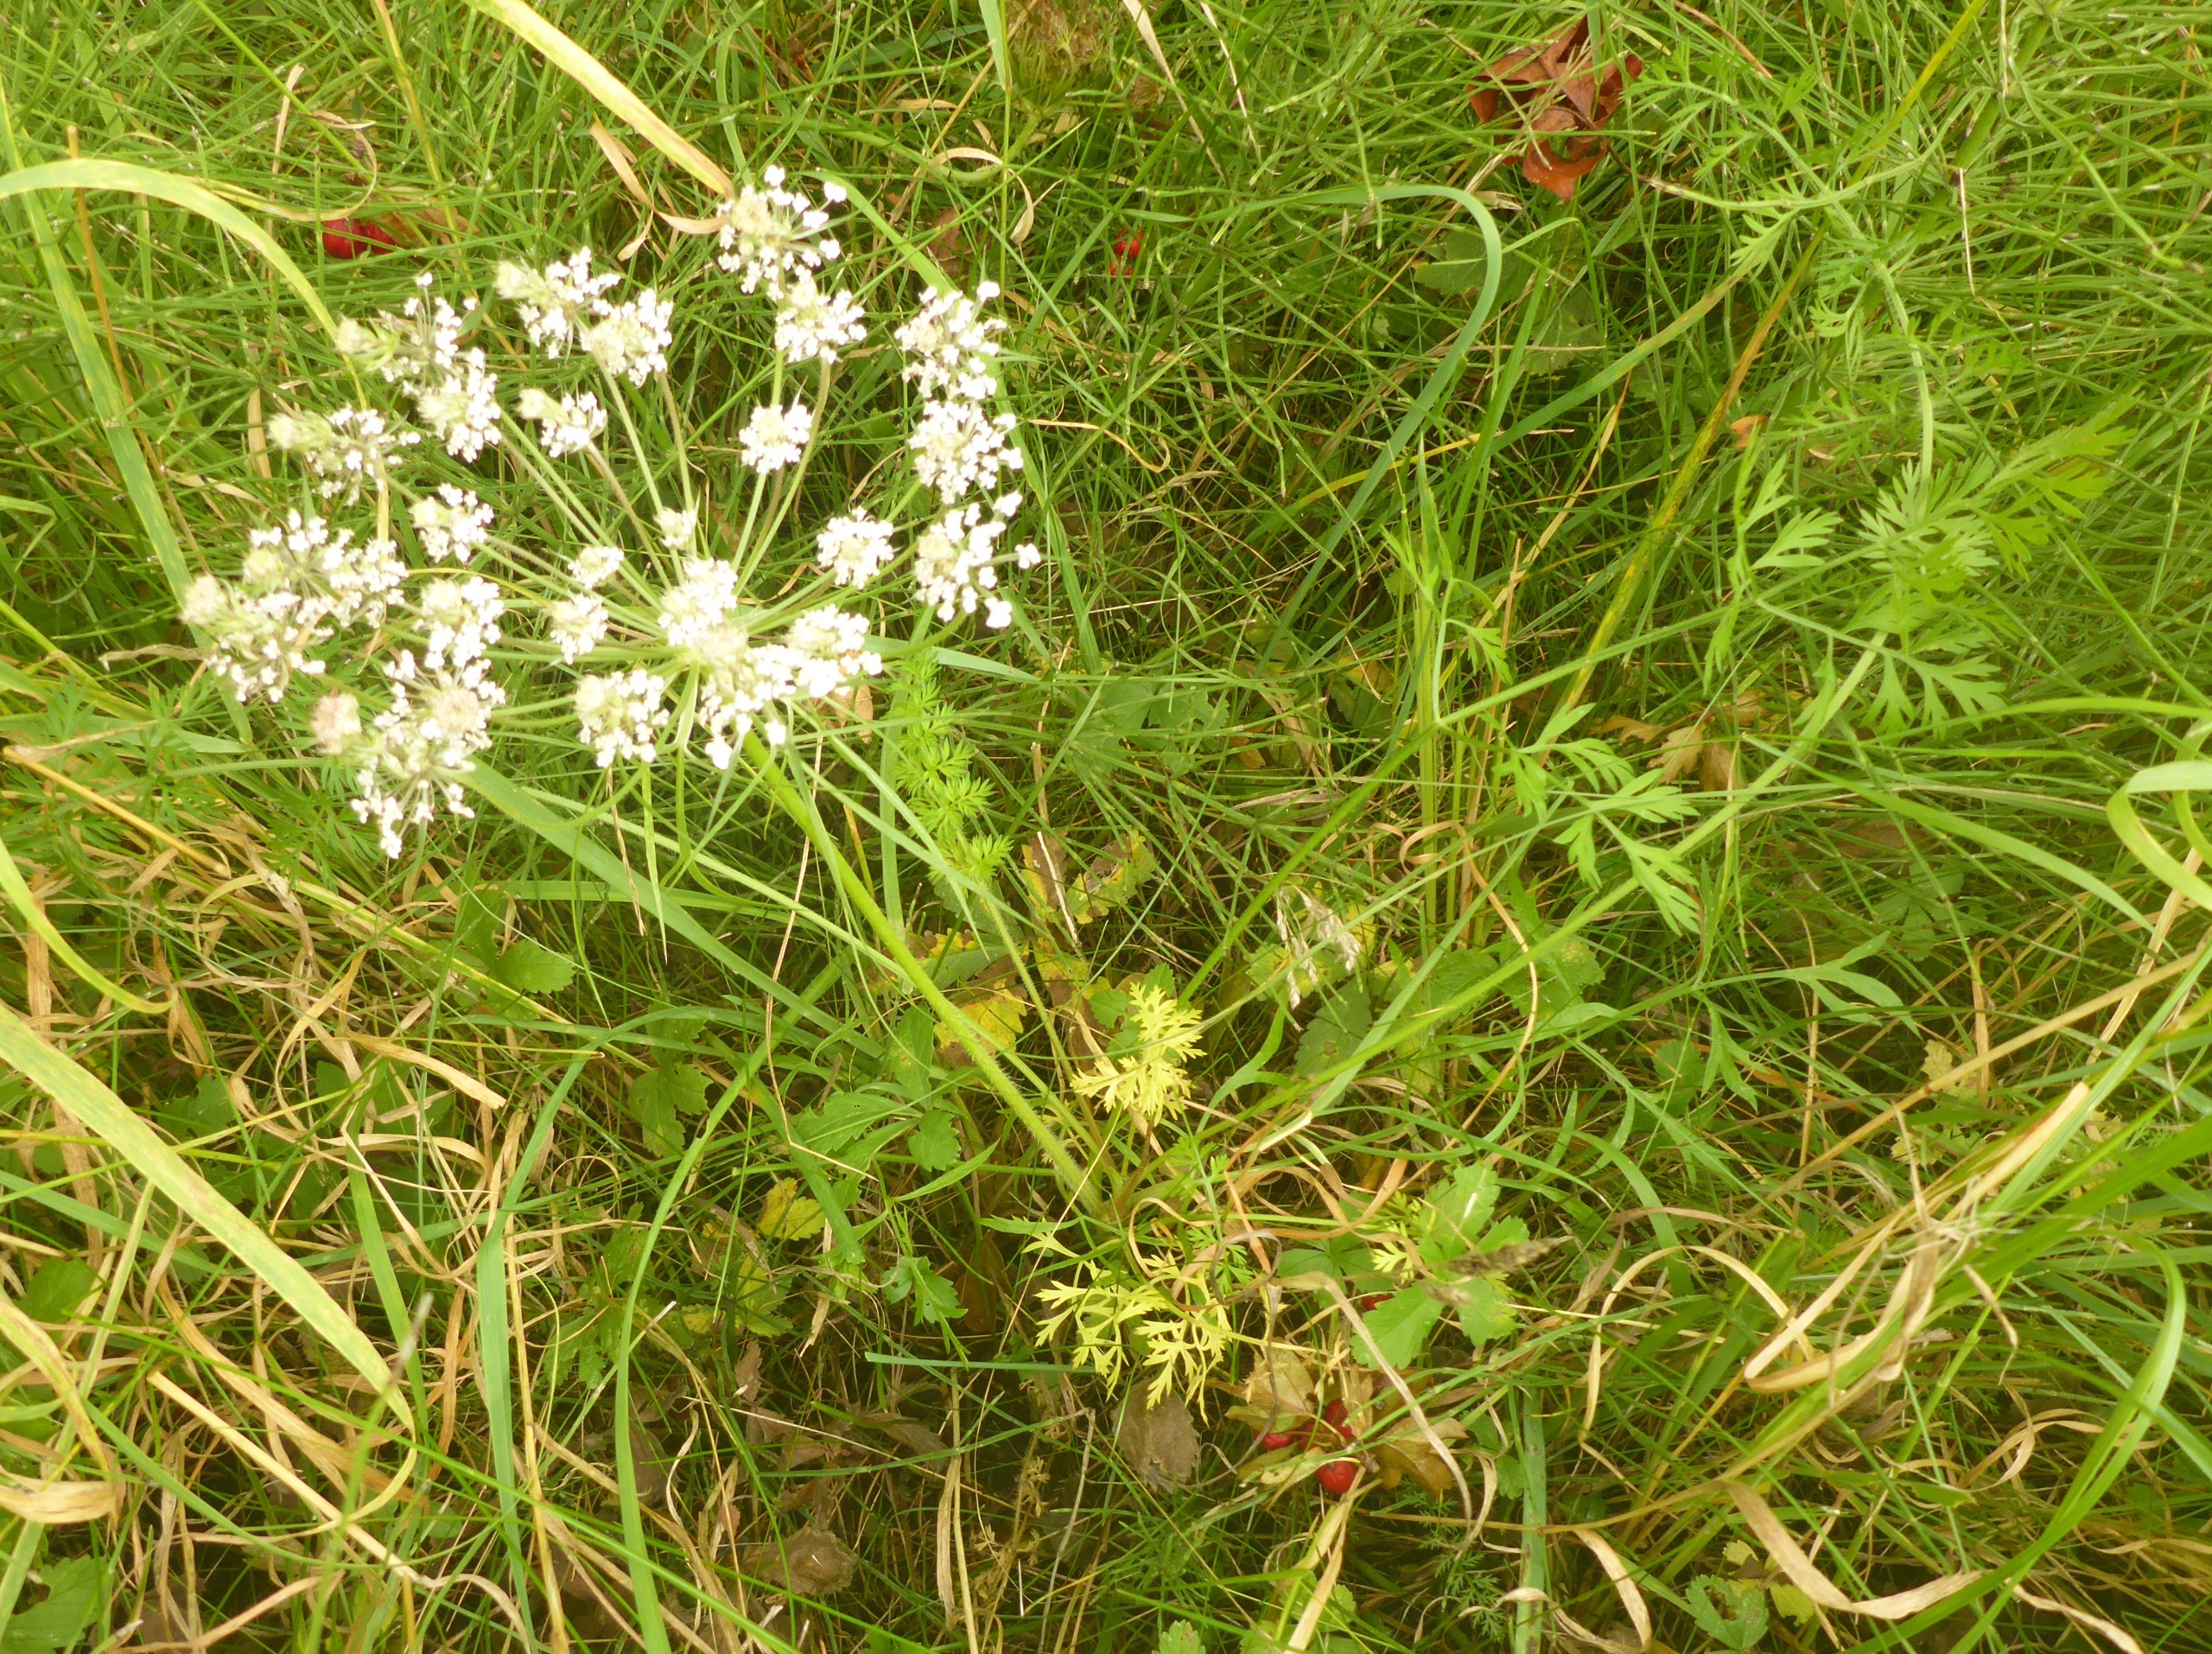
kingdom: Plantae
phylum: Tracheophyta
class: Magnoliopsida
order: Apiales
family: Apiaceae
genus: Daucus
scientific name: Daucus carota
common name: Gulerod
